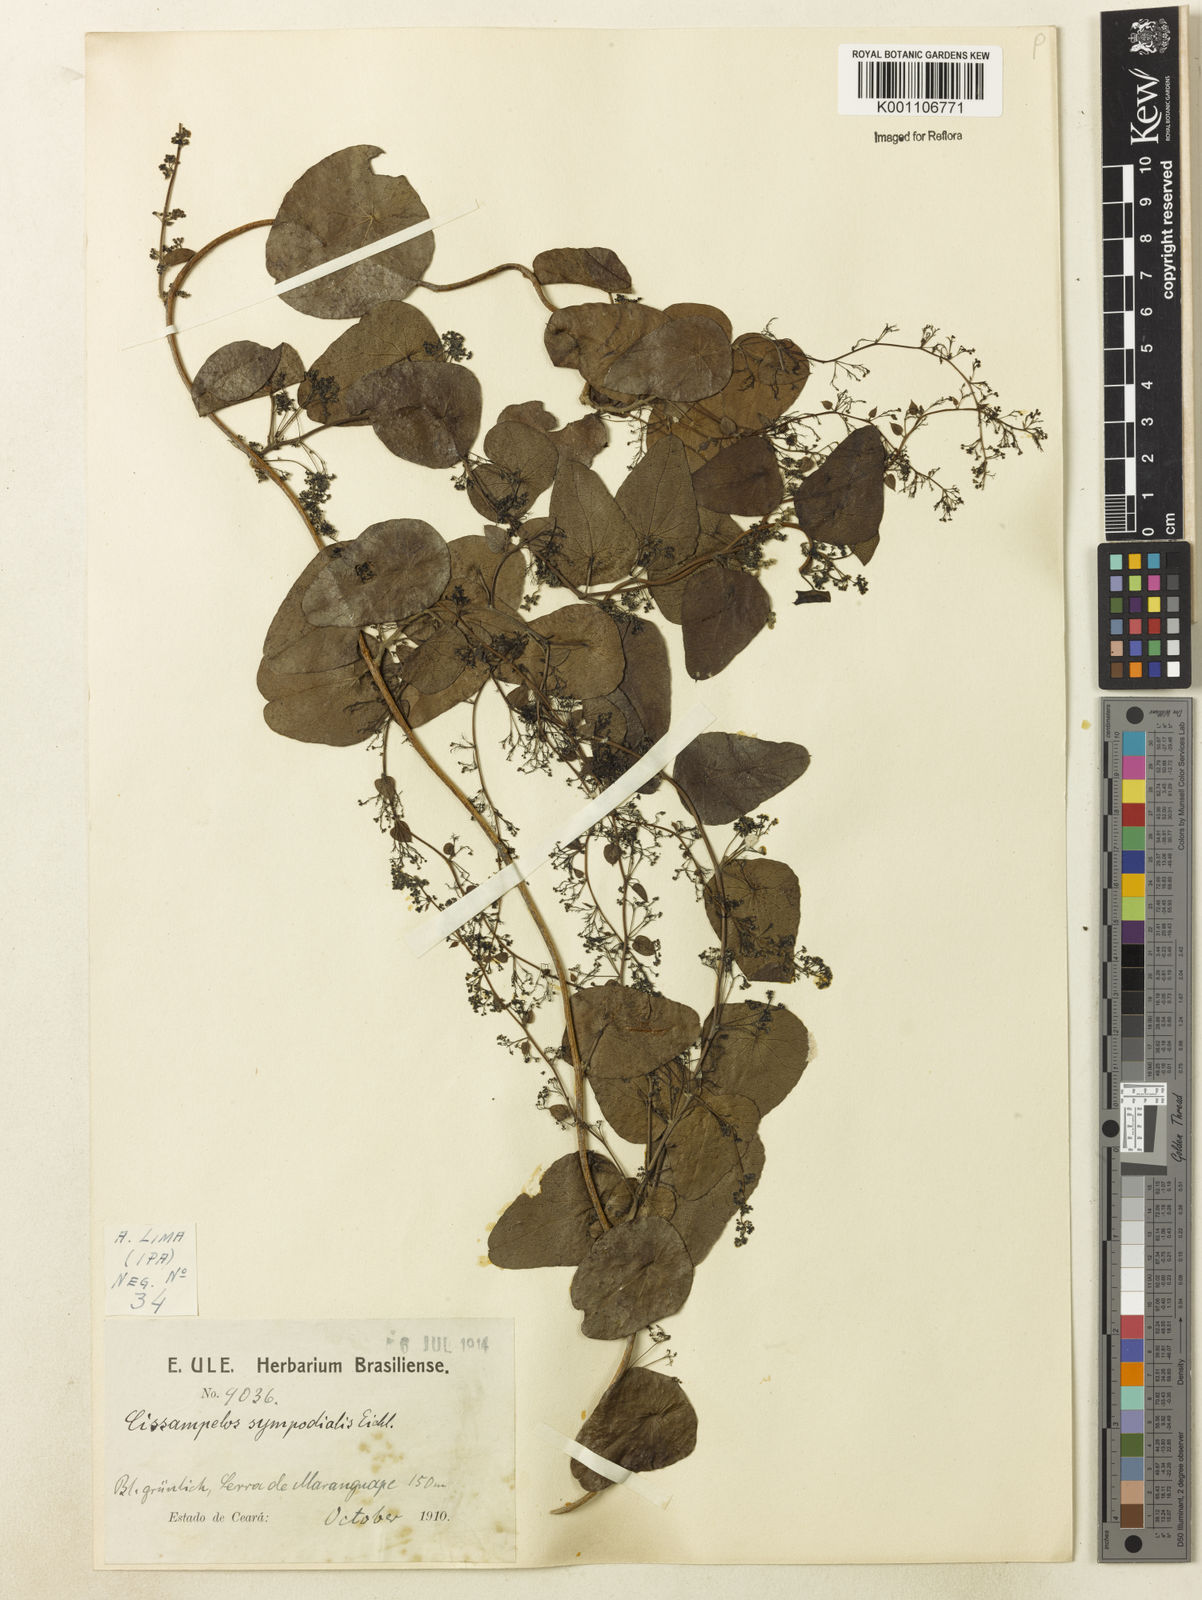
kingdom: Plantae
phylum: Tracheophyta
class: Magnoliopsida
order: Ranunculales
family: Menispermaceae
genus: Cissampelos
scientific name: Cissampelos sympodialis
